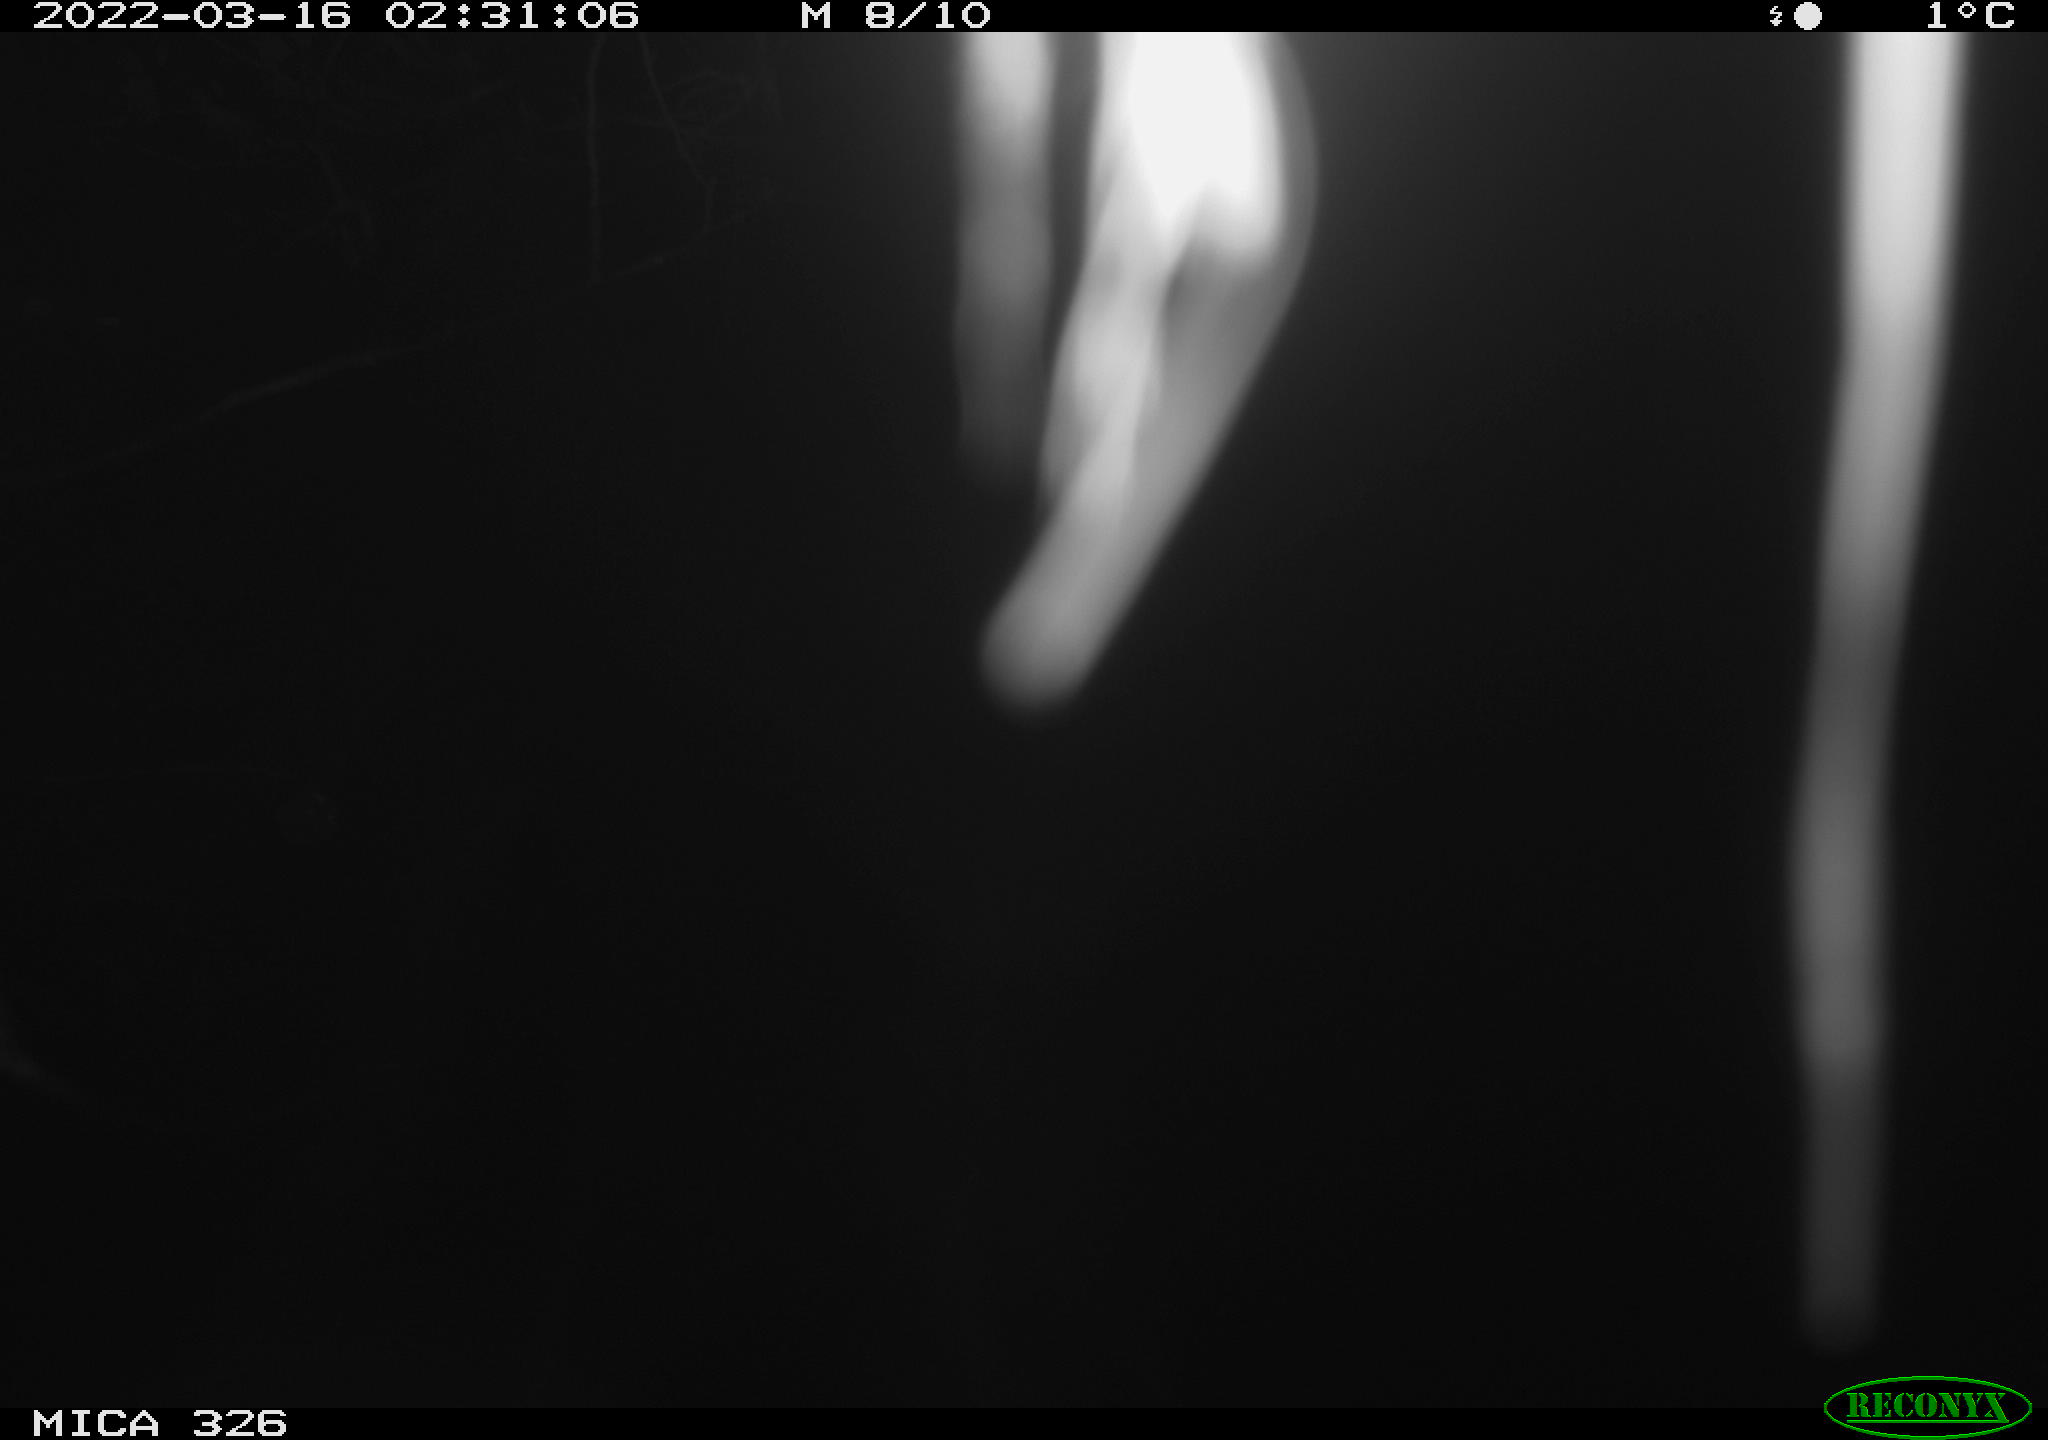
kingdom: Animalia
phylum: Chordata
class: Mammalia
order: Rodentia
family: Muridae
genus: Rattus
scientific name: Rattus norvegicus
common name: Brown rat
